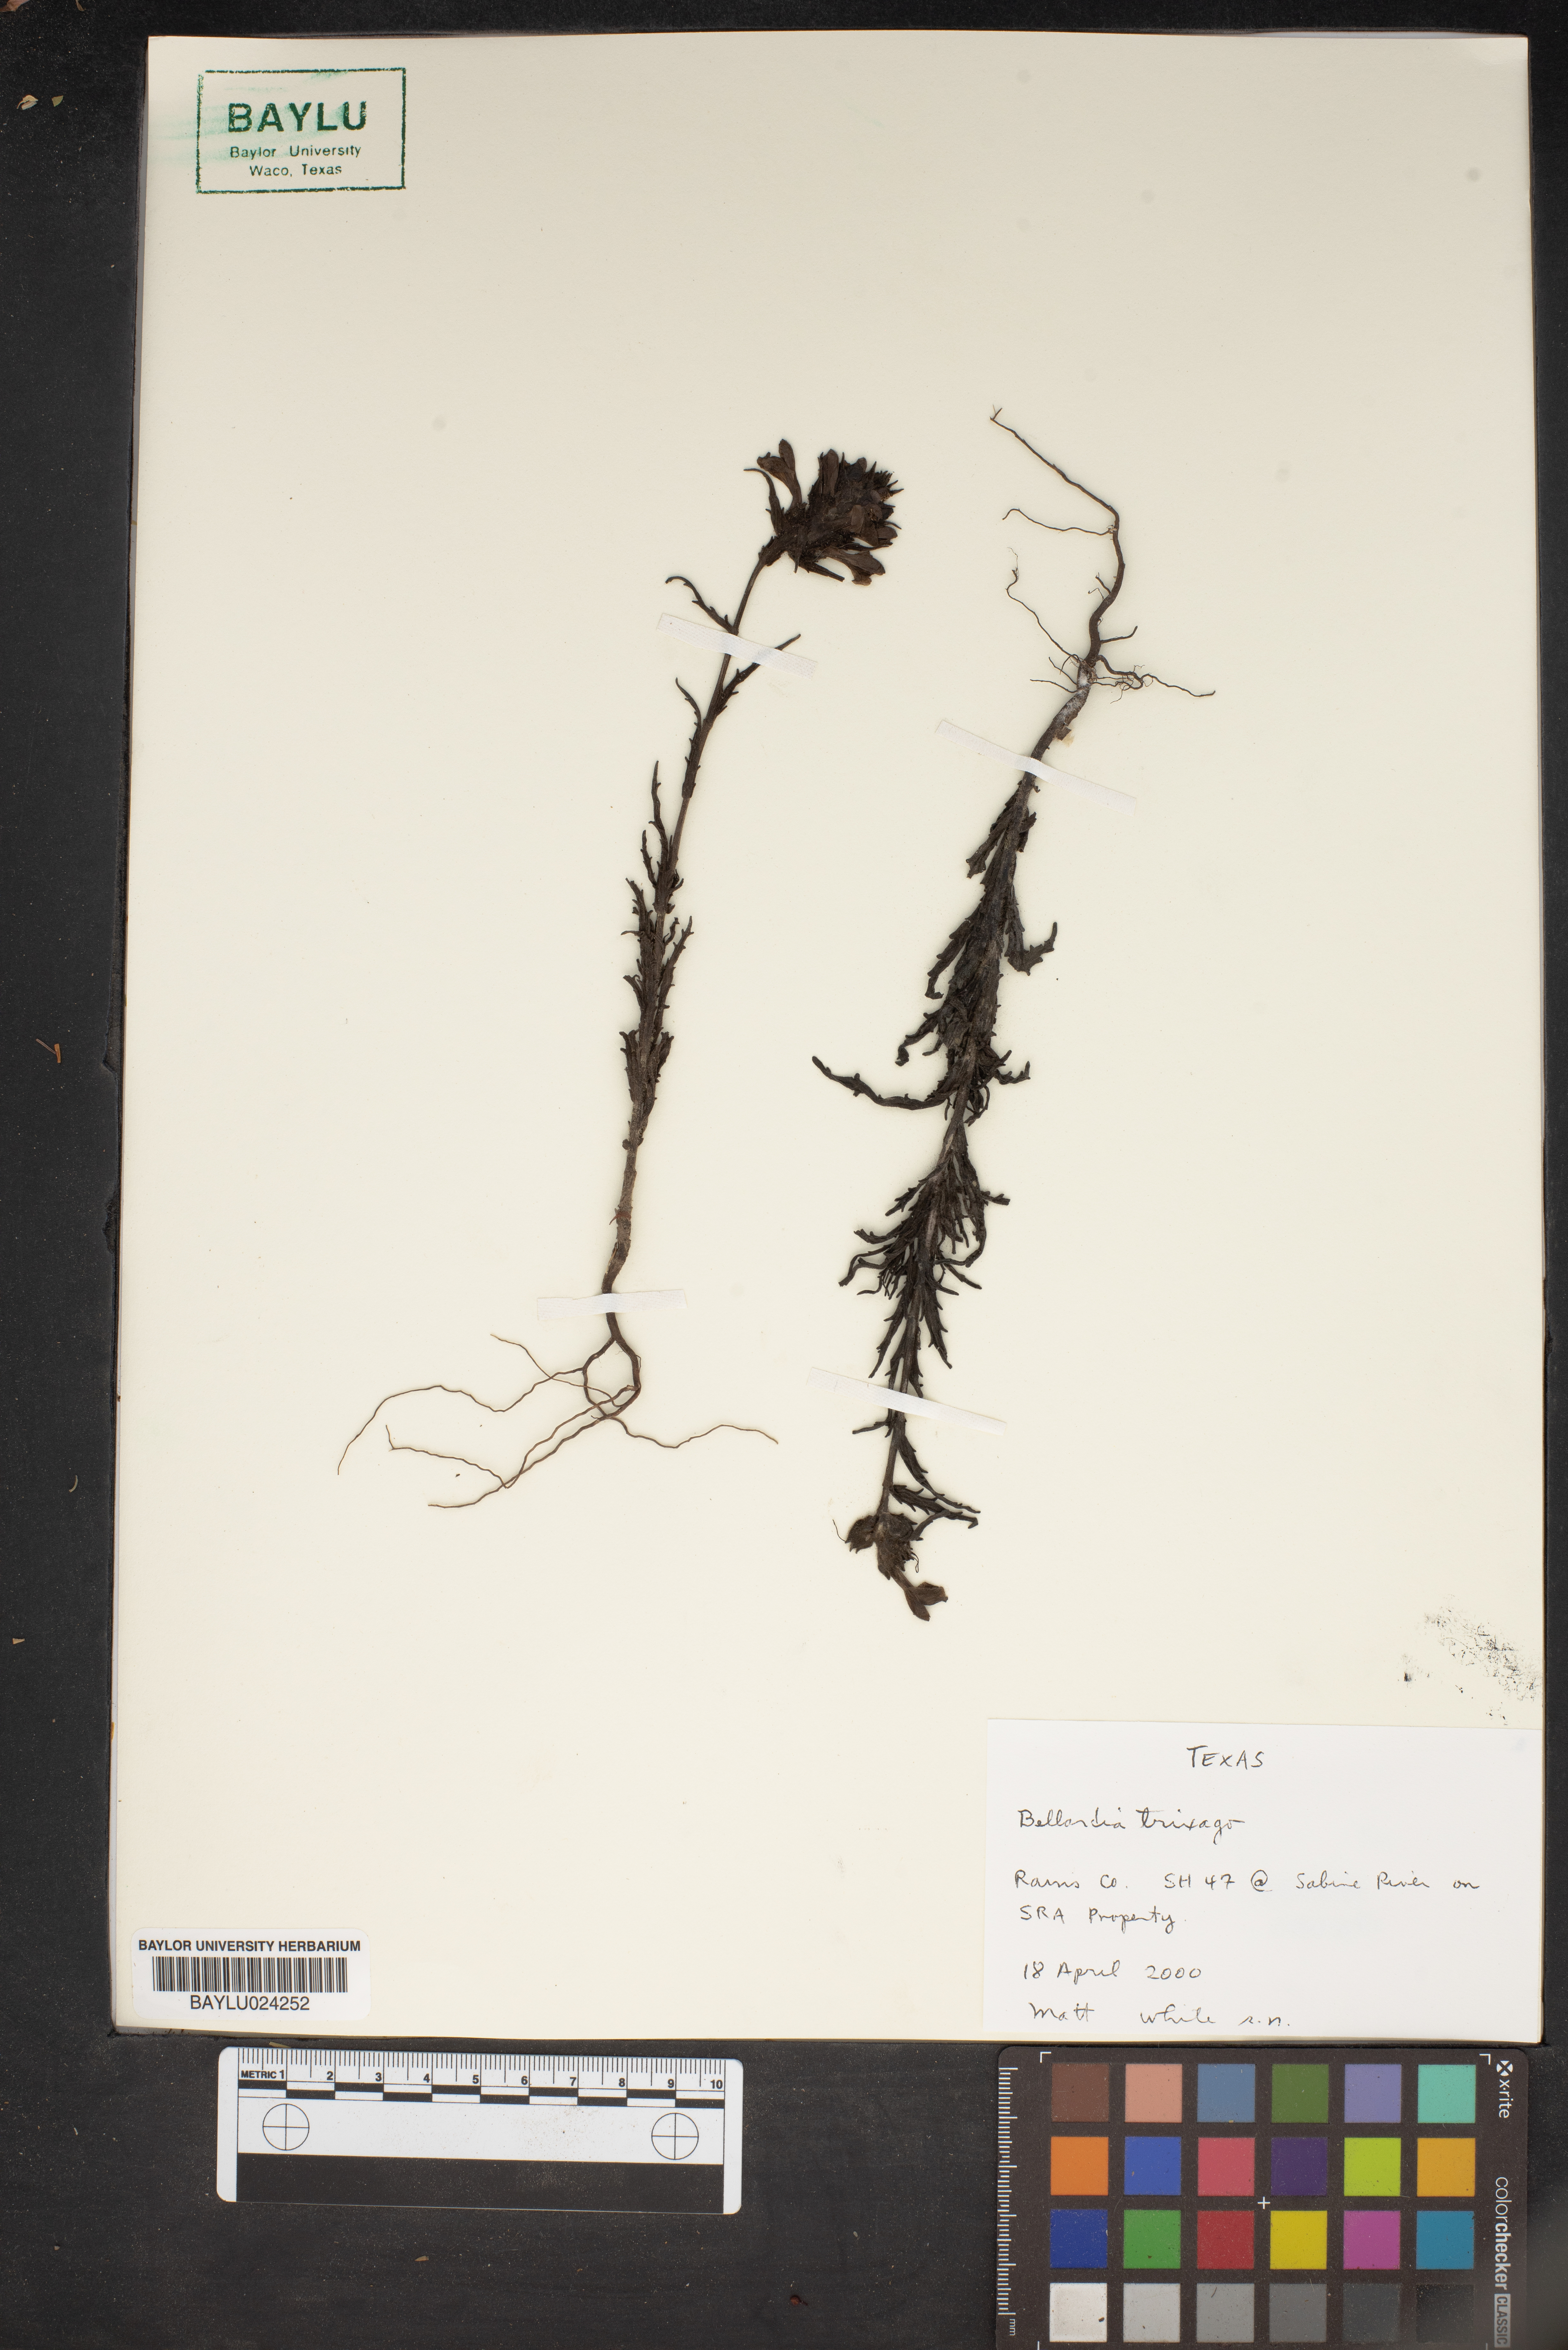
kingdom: Plantae
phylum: Tracheophyta
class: Magnoliopsida
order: Lamiales
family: Orobanchaceae
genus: Bellardia
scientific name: Bellardia trixago
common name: Mediterranean lineseed
